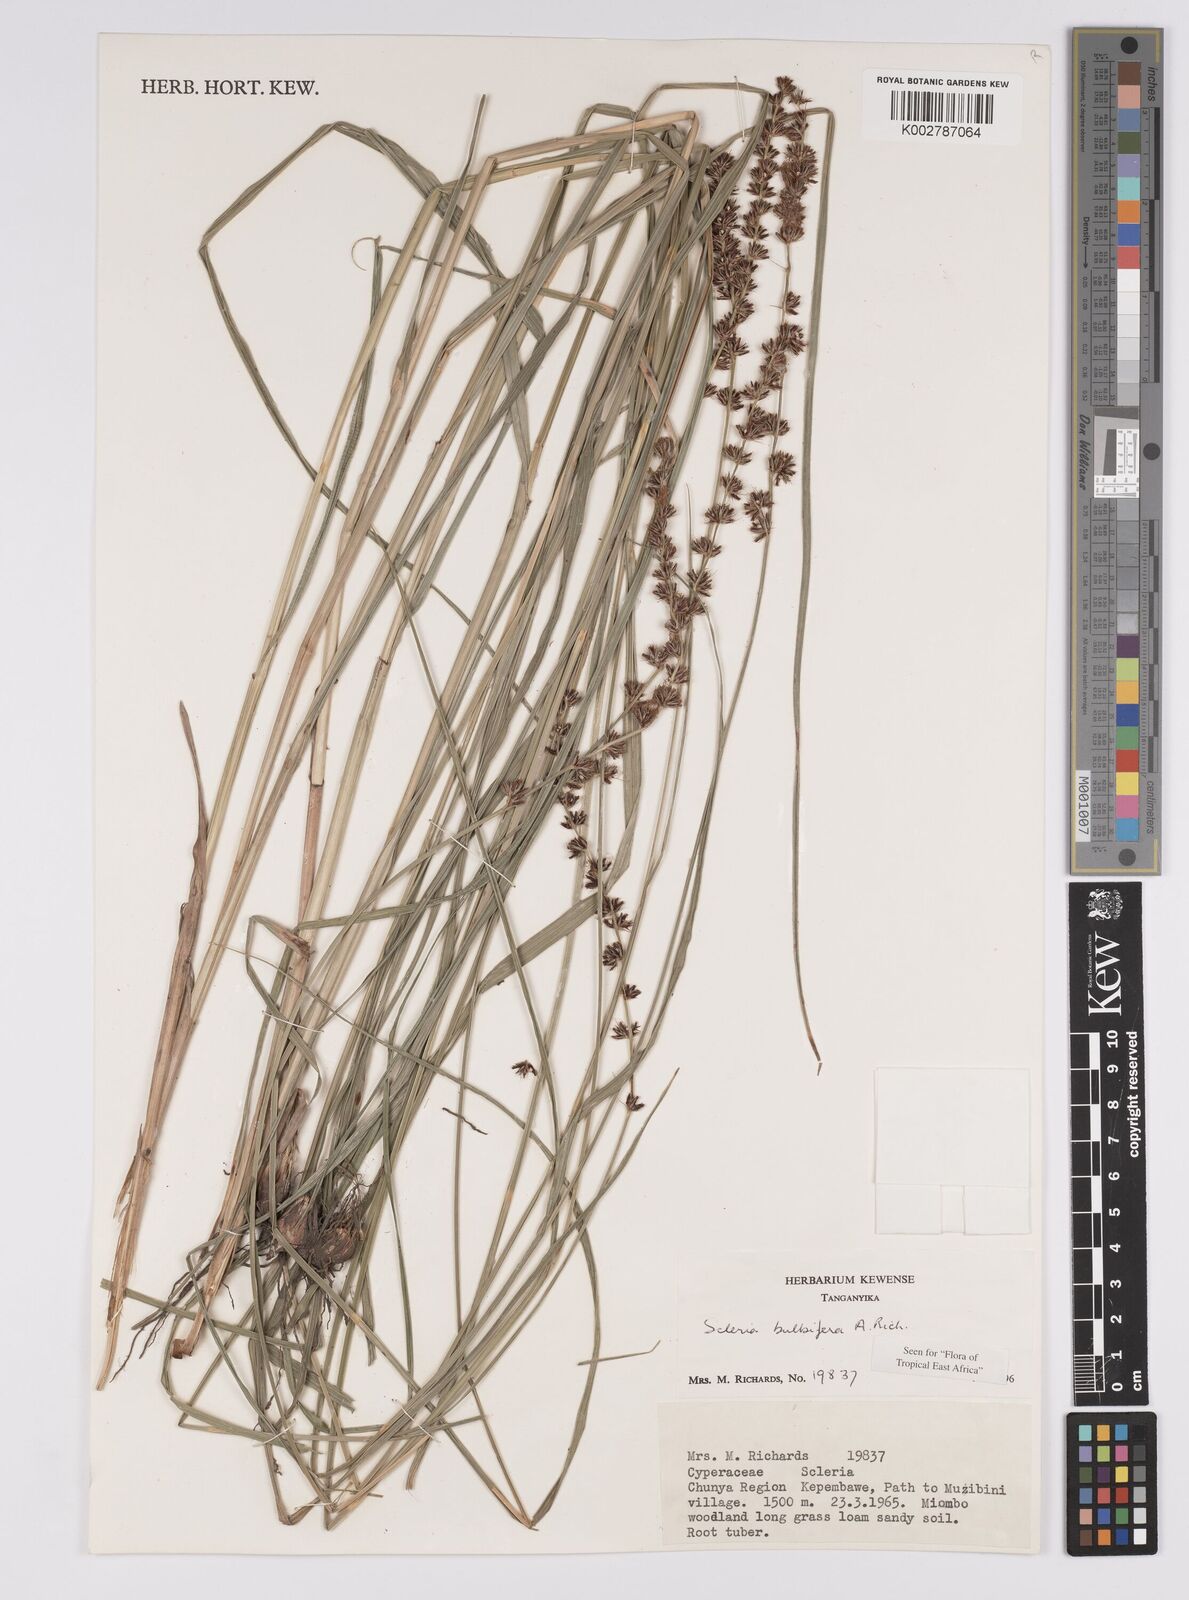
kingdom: Plantae
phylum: Tracheophyta
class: Liliopsida
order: Poales
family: Cyperaceae
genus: Scleria
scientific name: Scleria bulbifera
